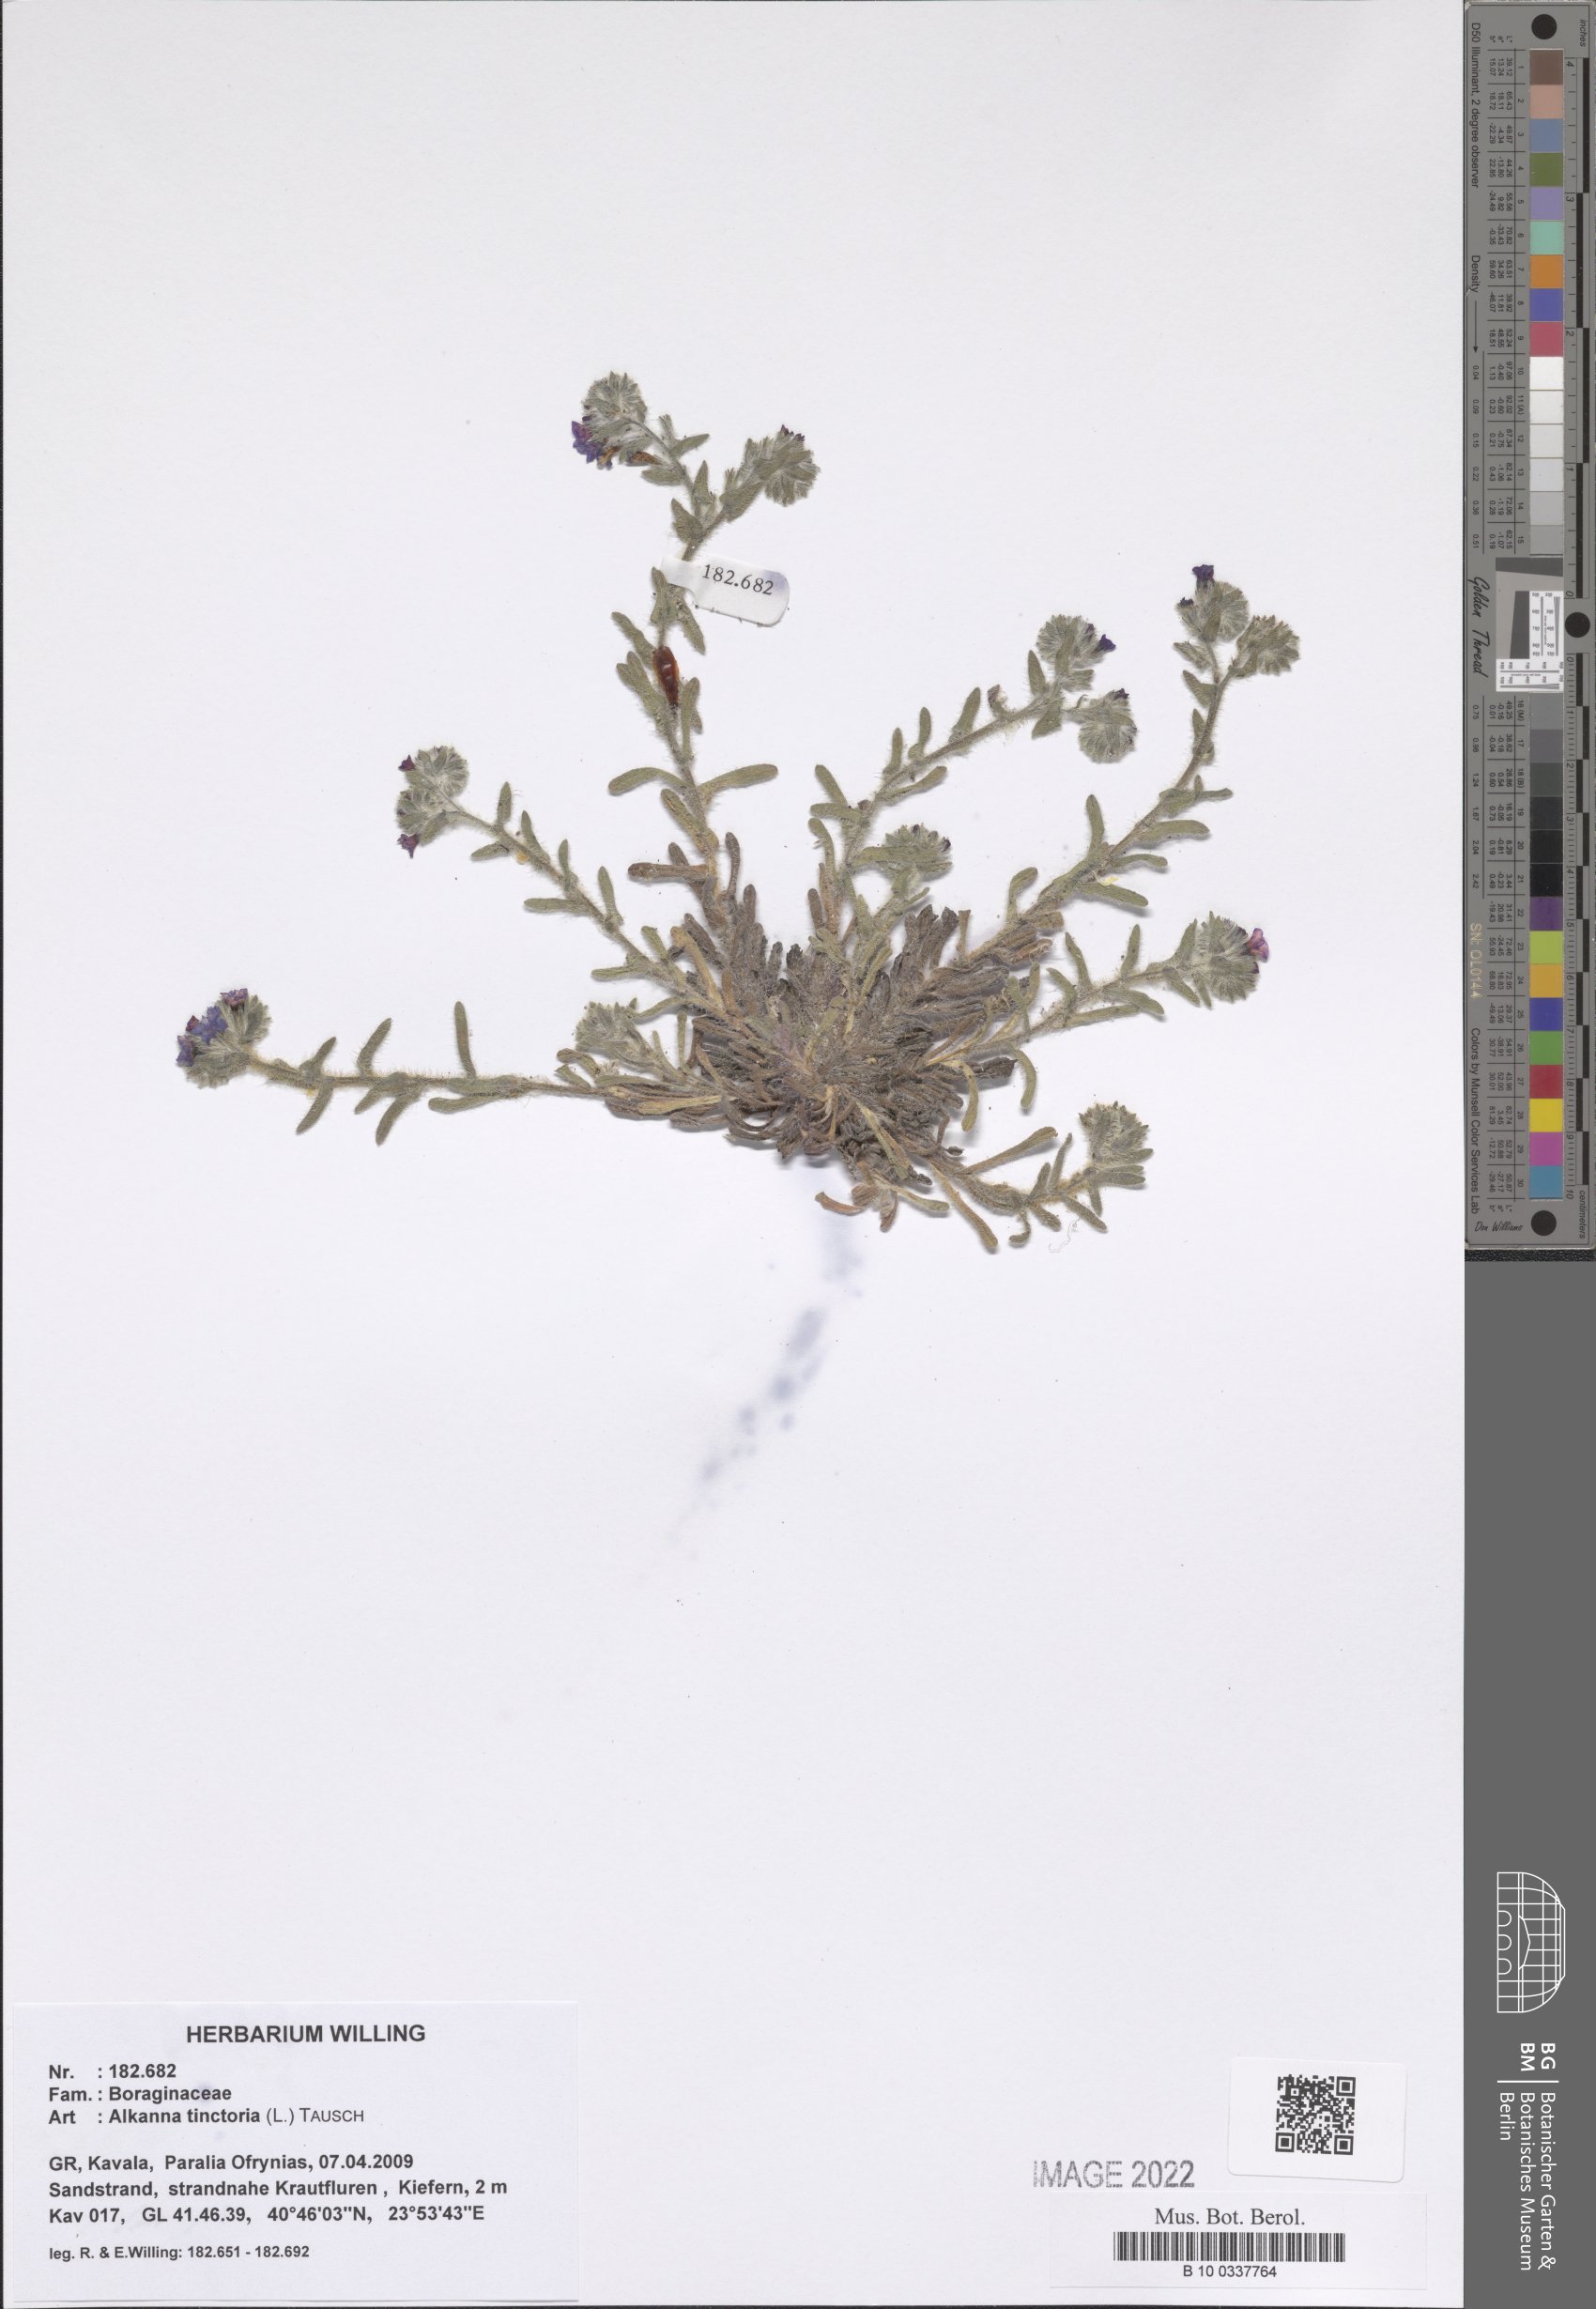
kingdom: Plantae
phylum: Tracheophyta
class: Magnoliopsida
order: Boraginales
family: Boraginaceae
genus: Alkanna
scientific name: Alkanna tinctoria
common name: Dyer's-alkanet
